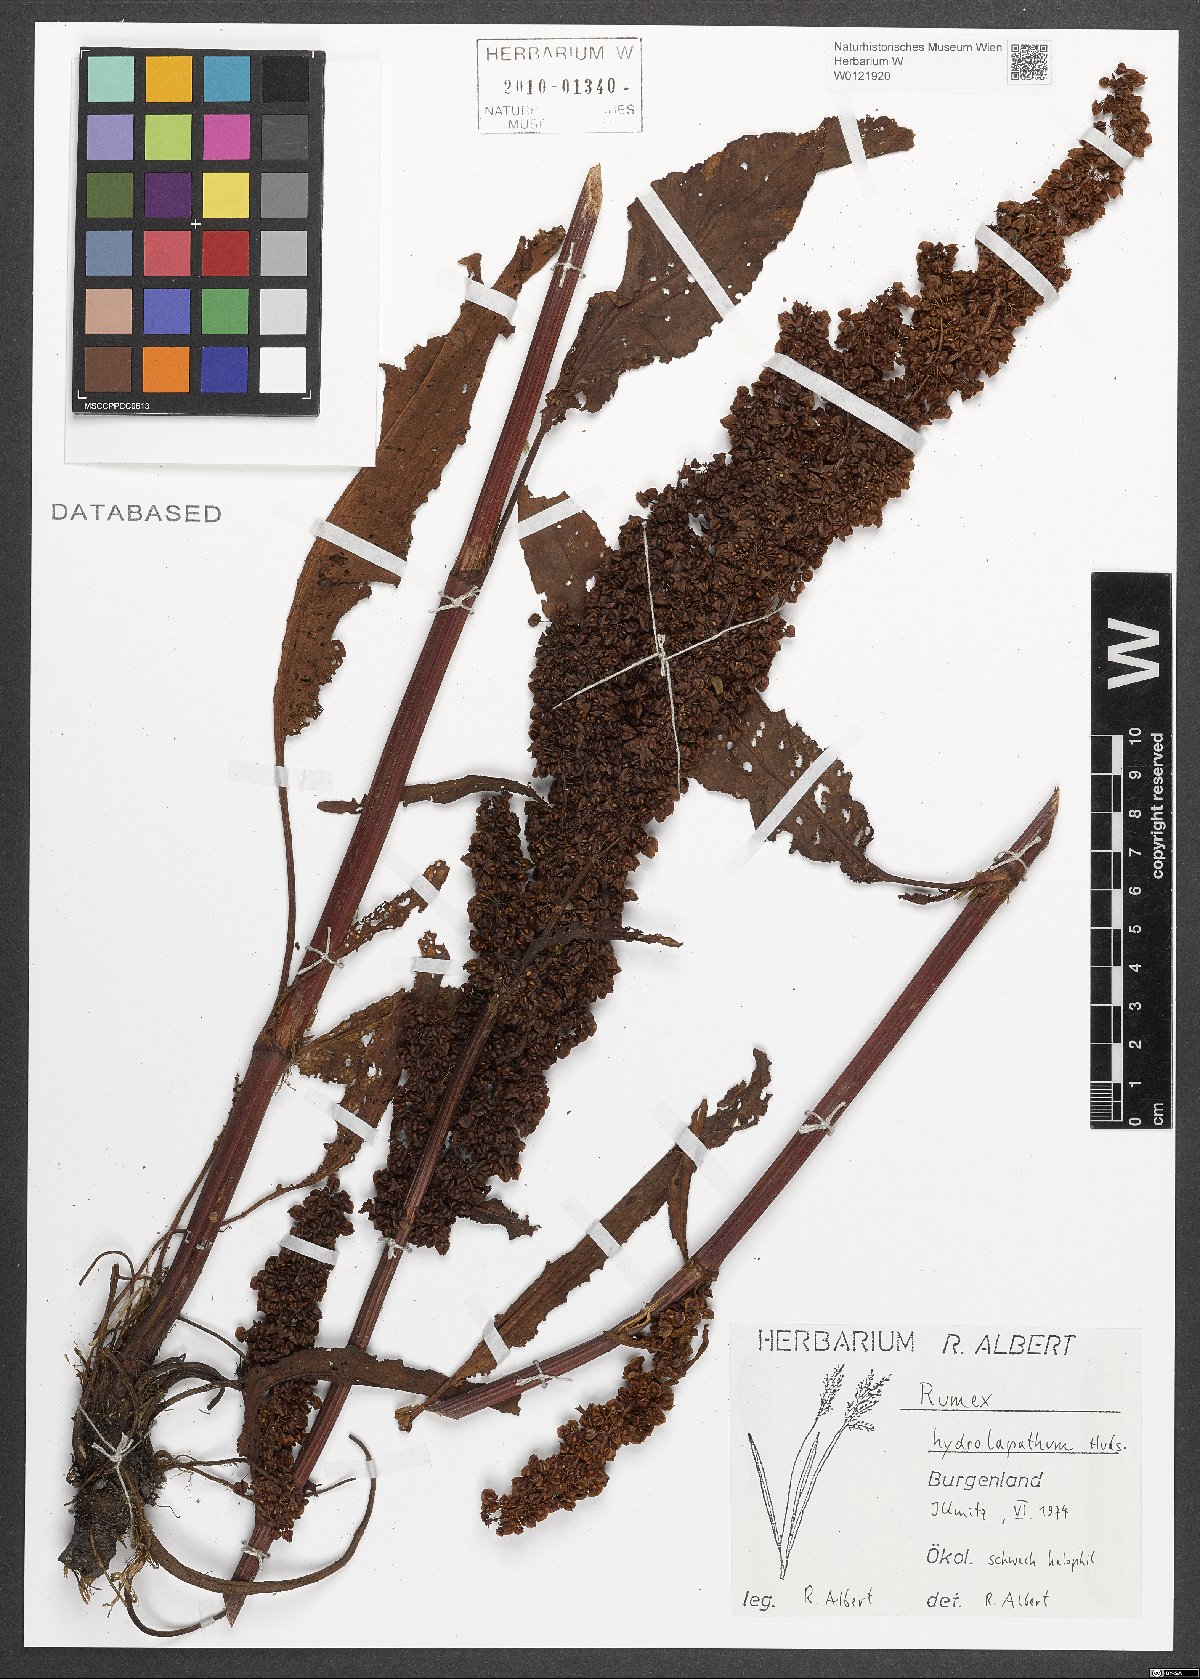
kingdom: Plantae
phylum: Tracheophyta
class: Magnoliopsida
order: Caryophyllales
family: Polygonaceae
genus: Rumex
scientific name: Rumex hydrolapathum
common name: Water dock
